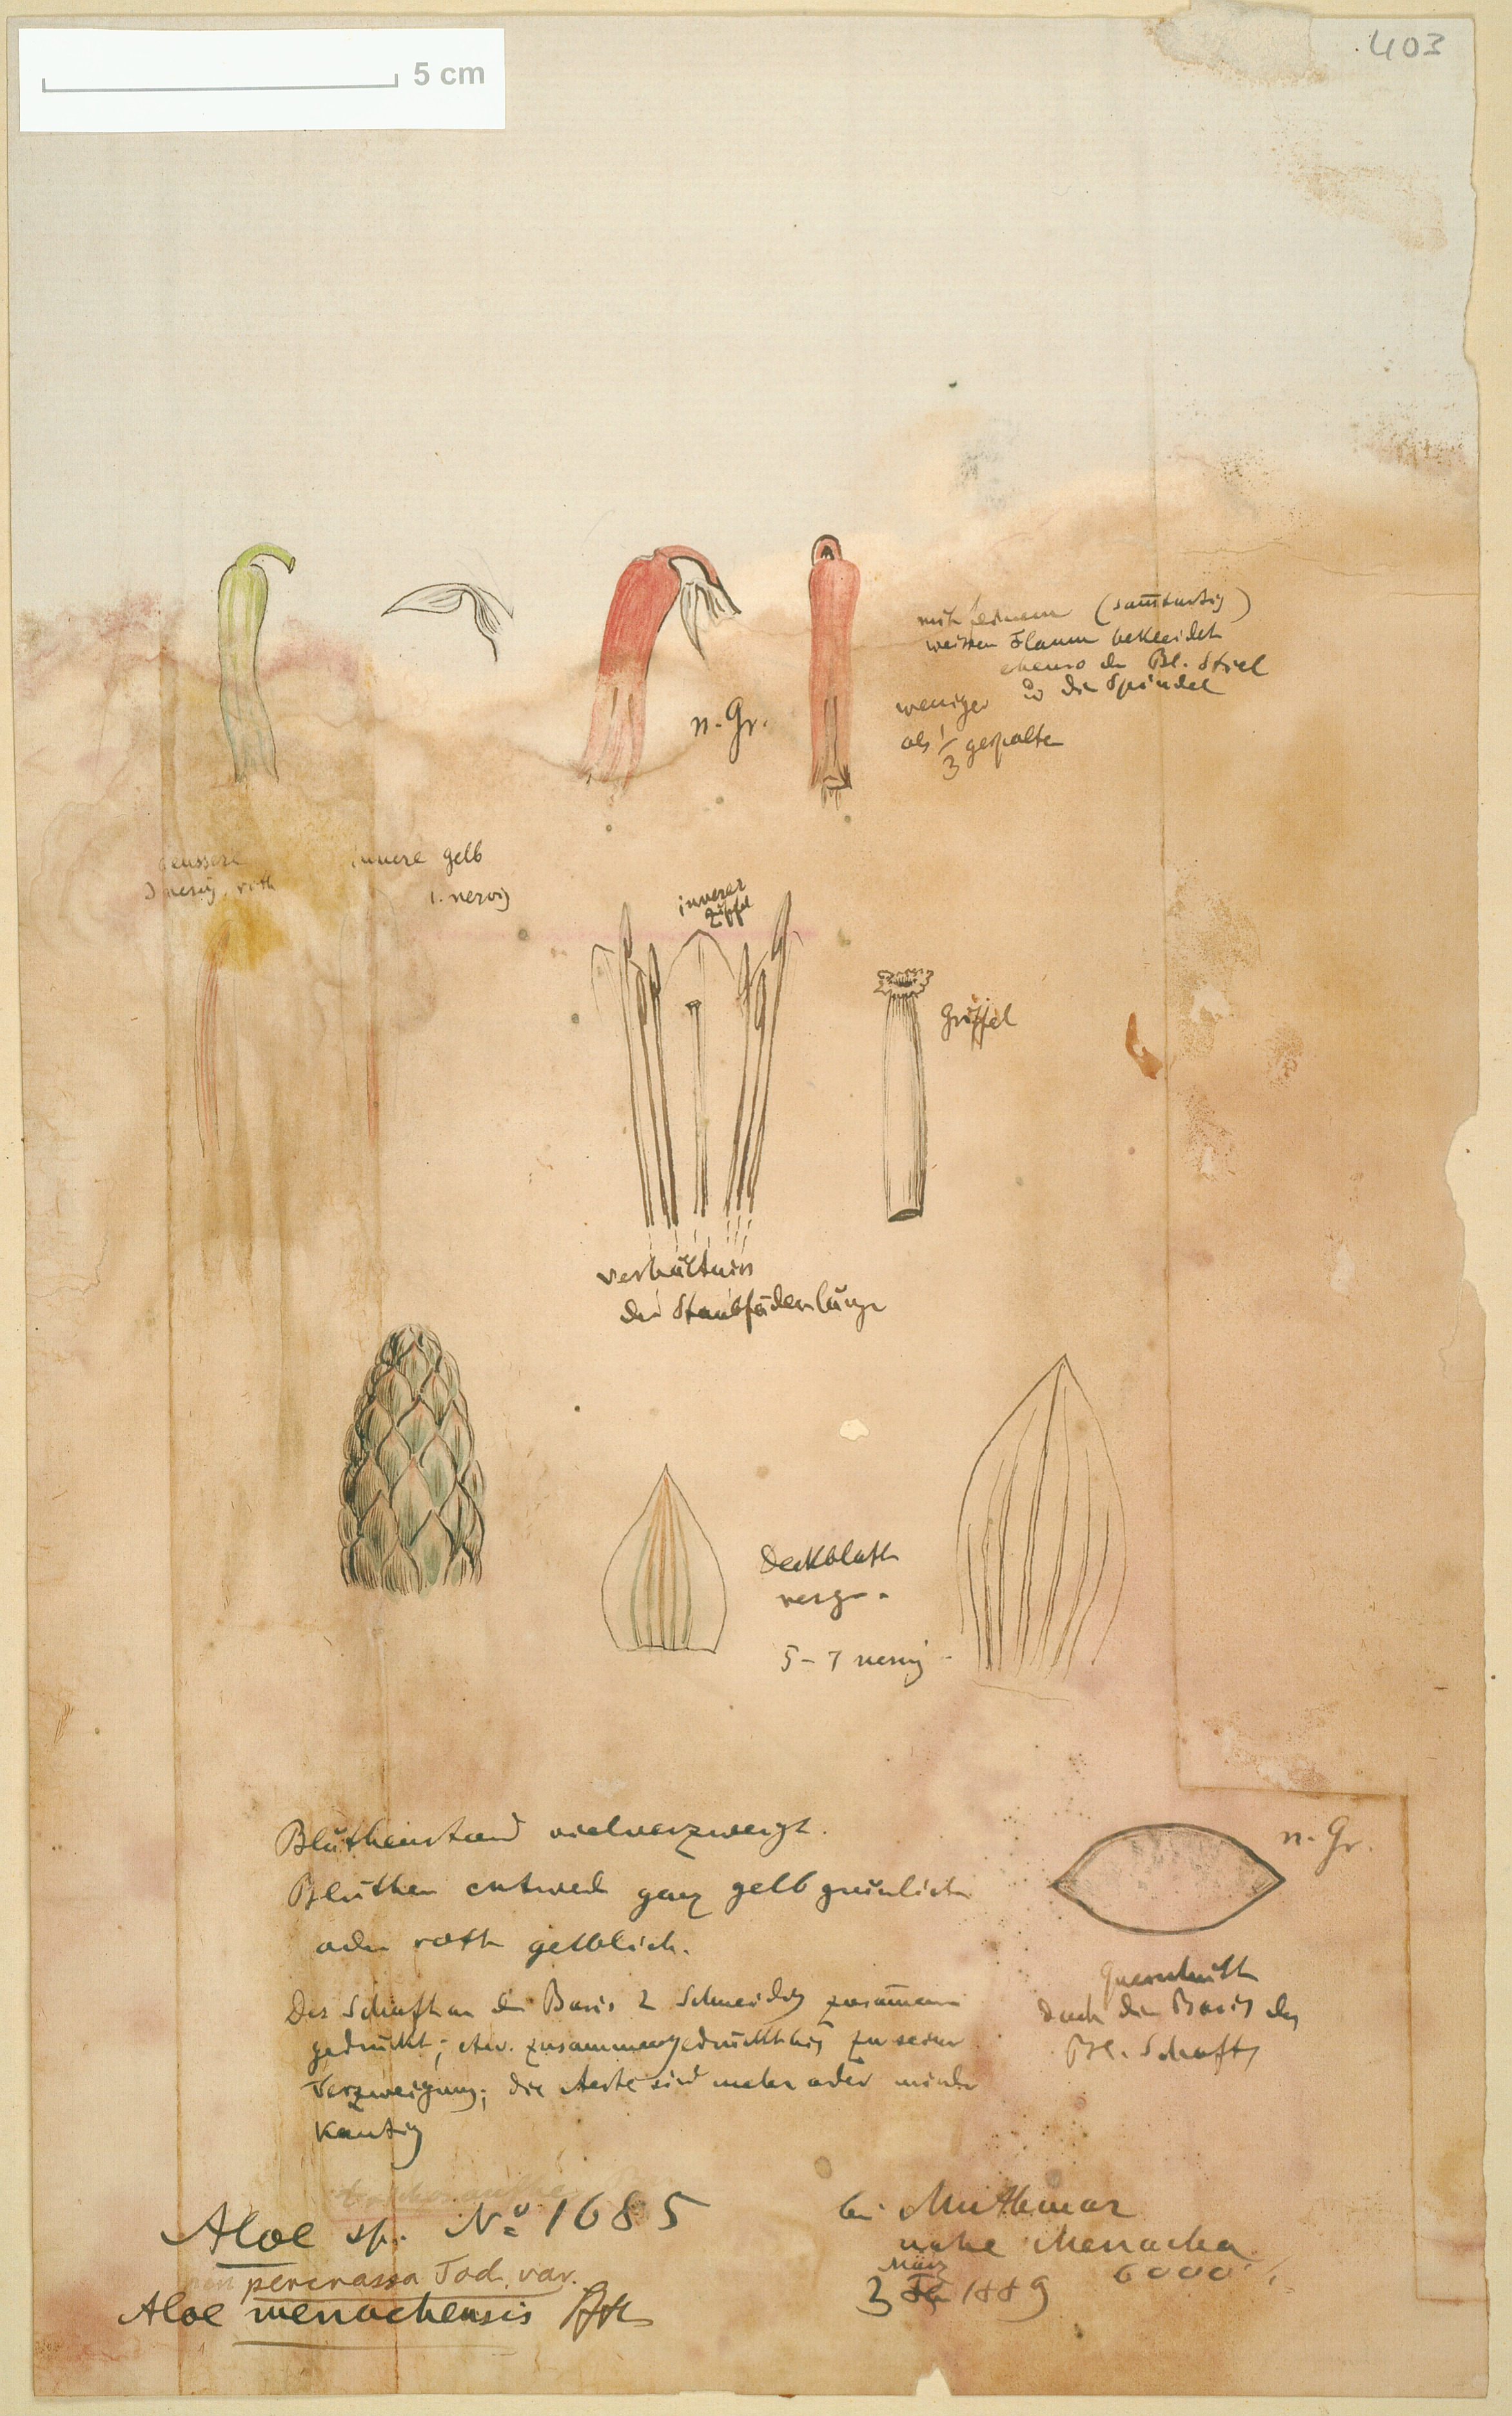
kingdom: Plantae
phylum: Tracheophyta
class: Liliopsida
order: Asparagales
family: Asphodelaceae
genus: Aloe
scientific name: Aloe menachensis
